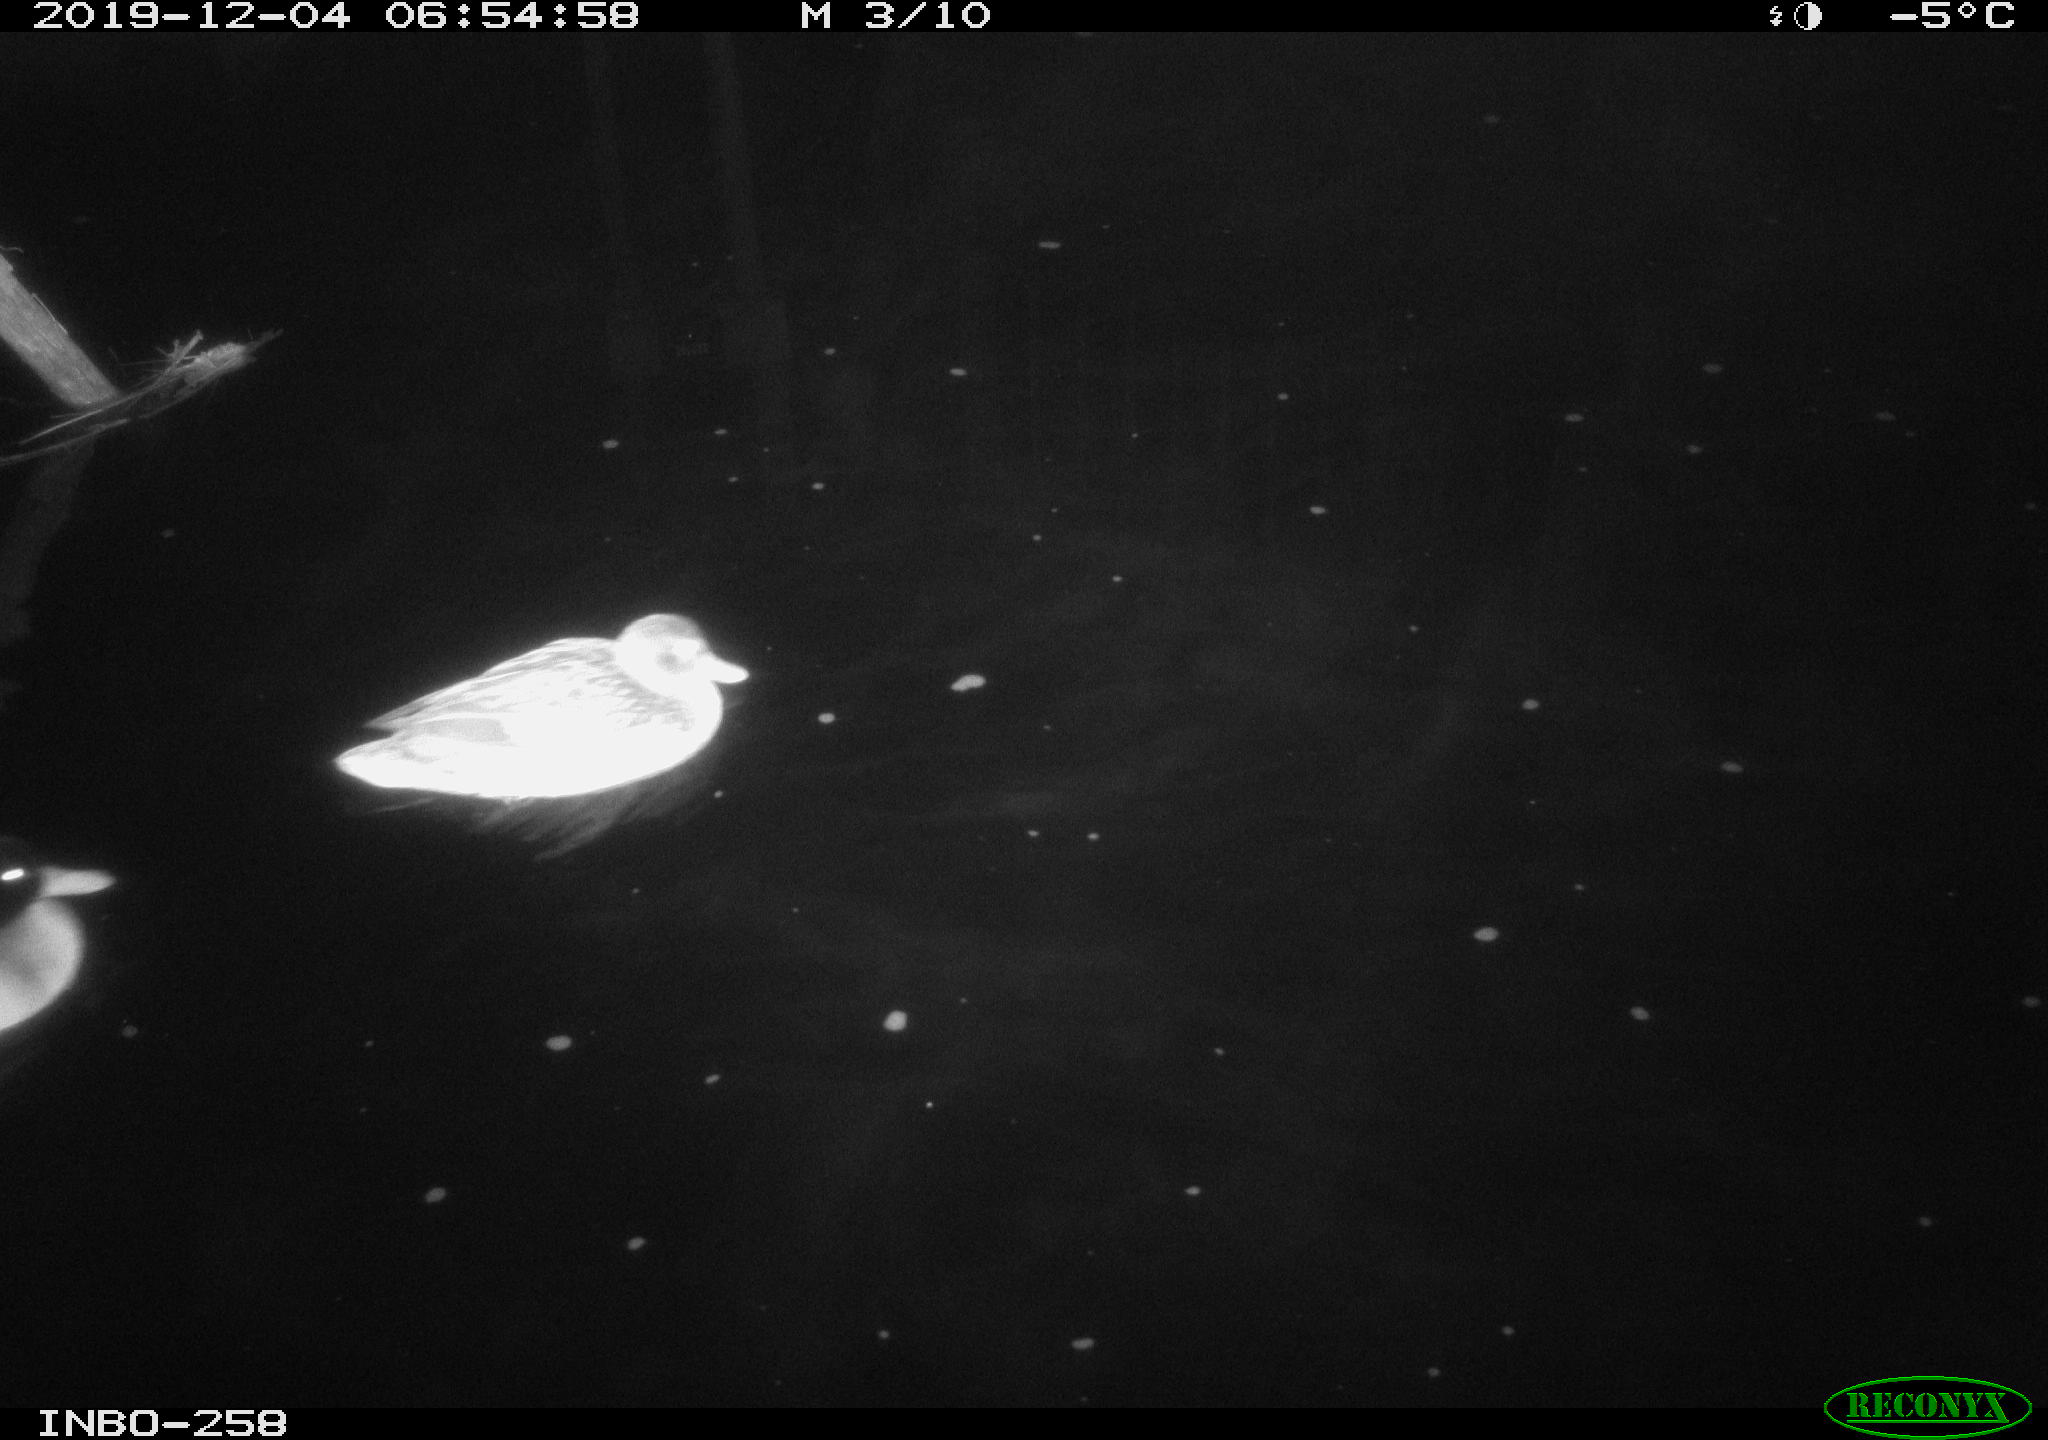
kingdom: Animalia
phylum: Chordata
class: Aves
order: Anseriformes
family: Anatidae
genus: Anas
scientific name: Anas platyrhynchos
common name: Mallard
